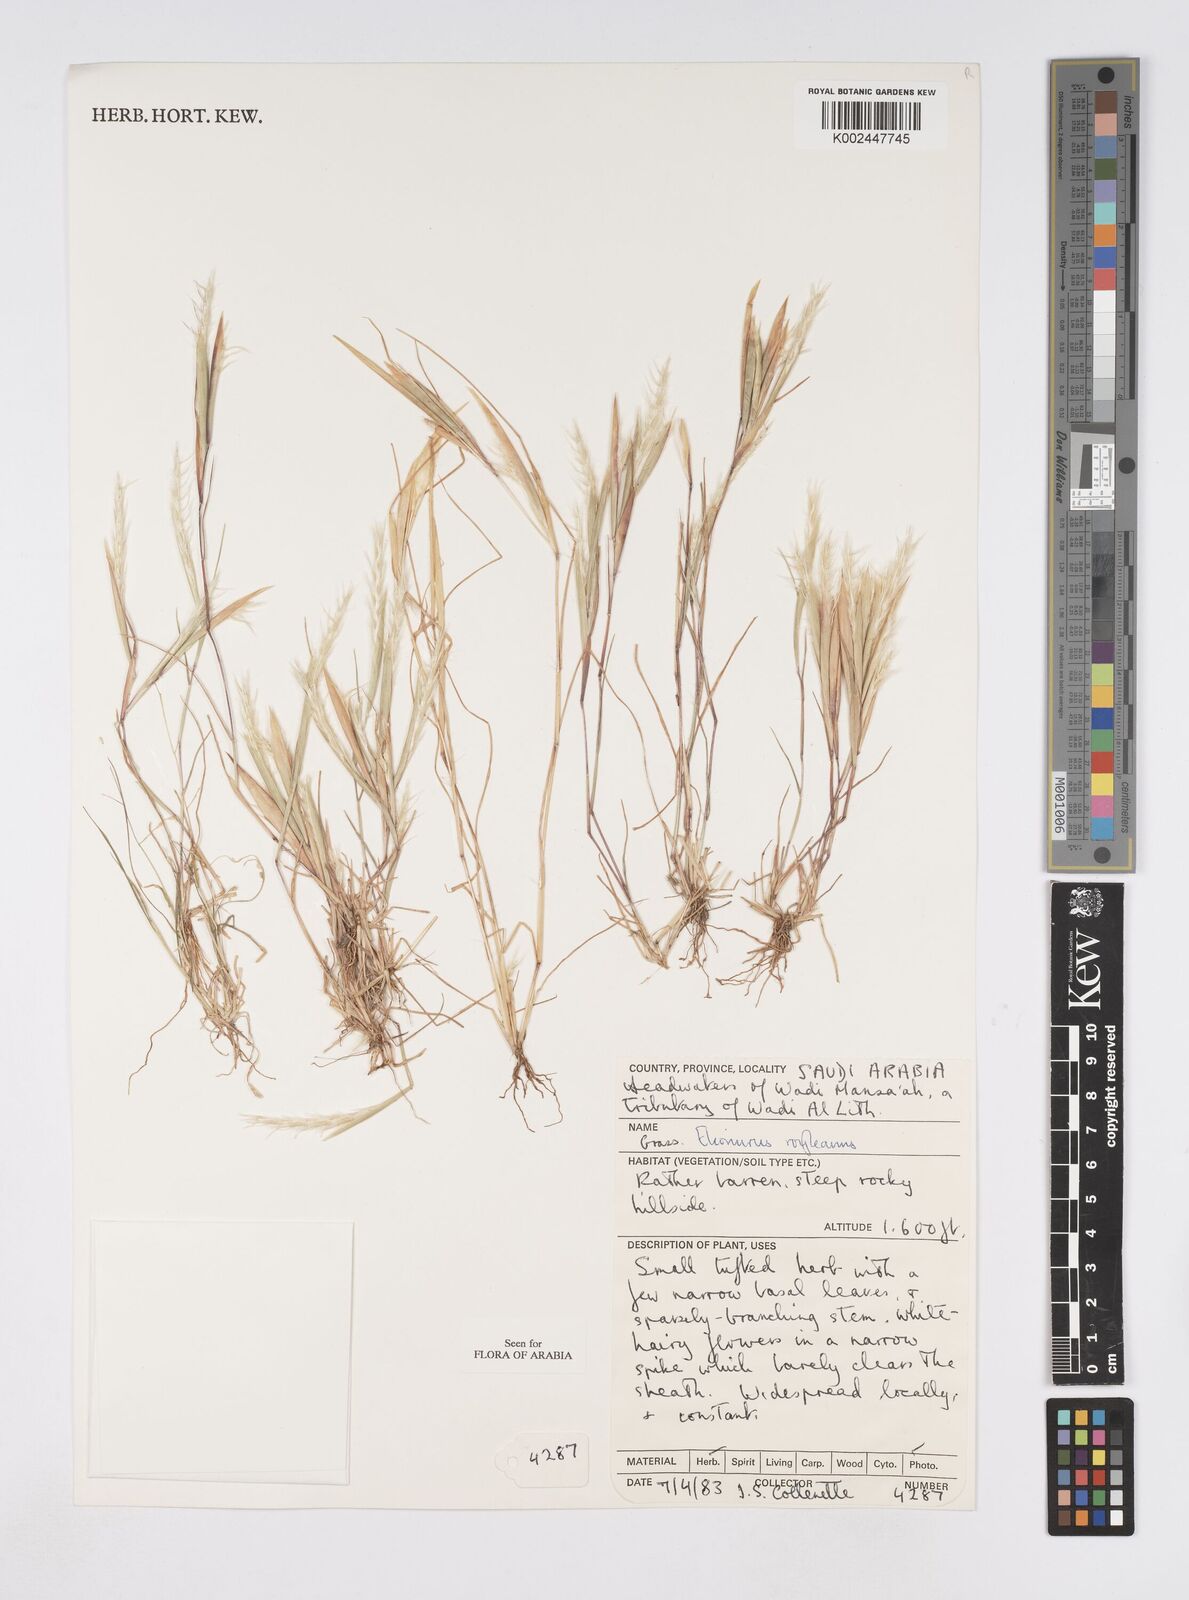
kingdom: Plantae
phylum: Tracheophyta
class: Liliopsida
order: Poales
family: Poaceae
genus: Elionurus
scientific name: Elionurus royleanus
